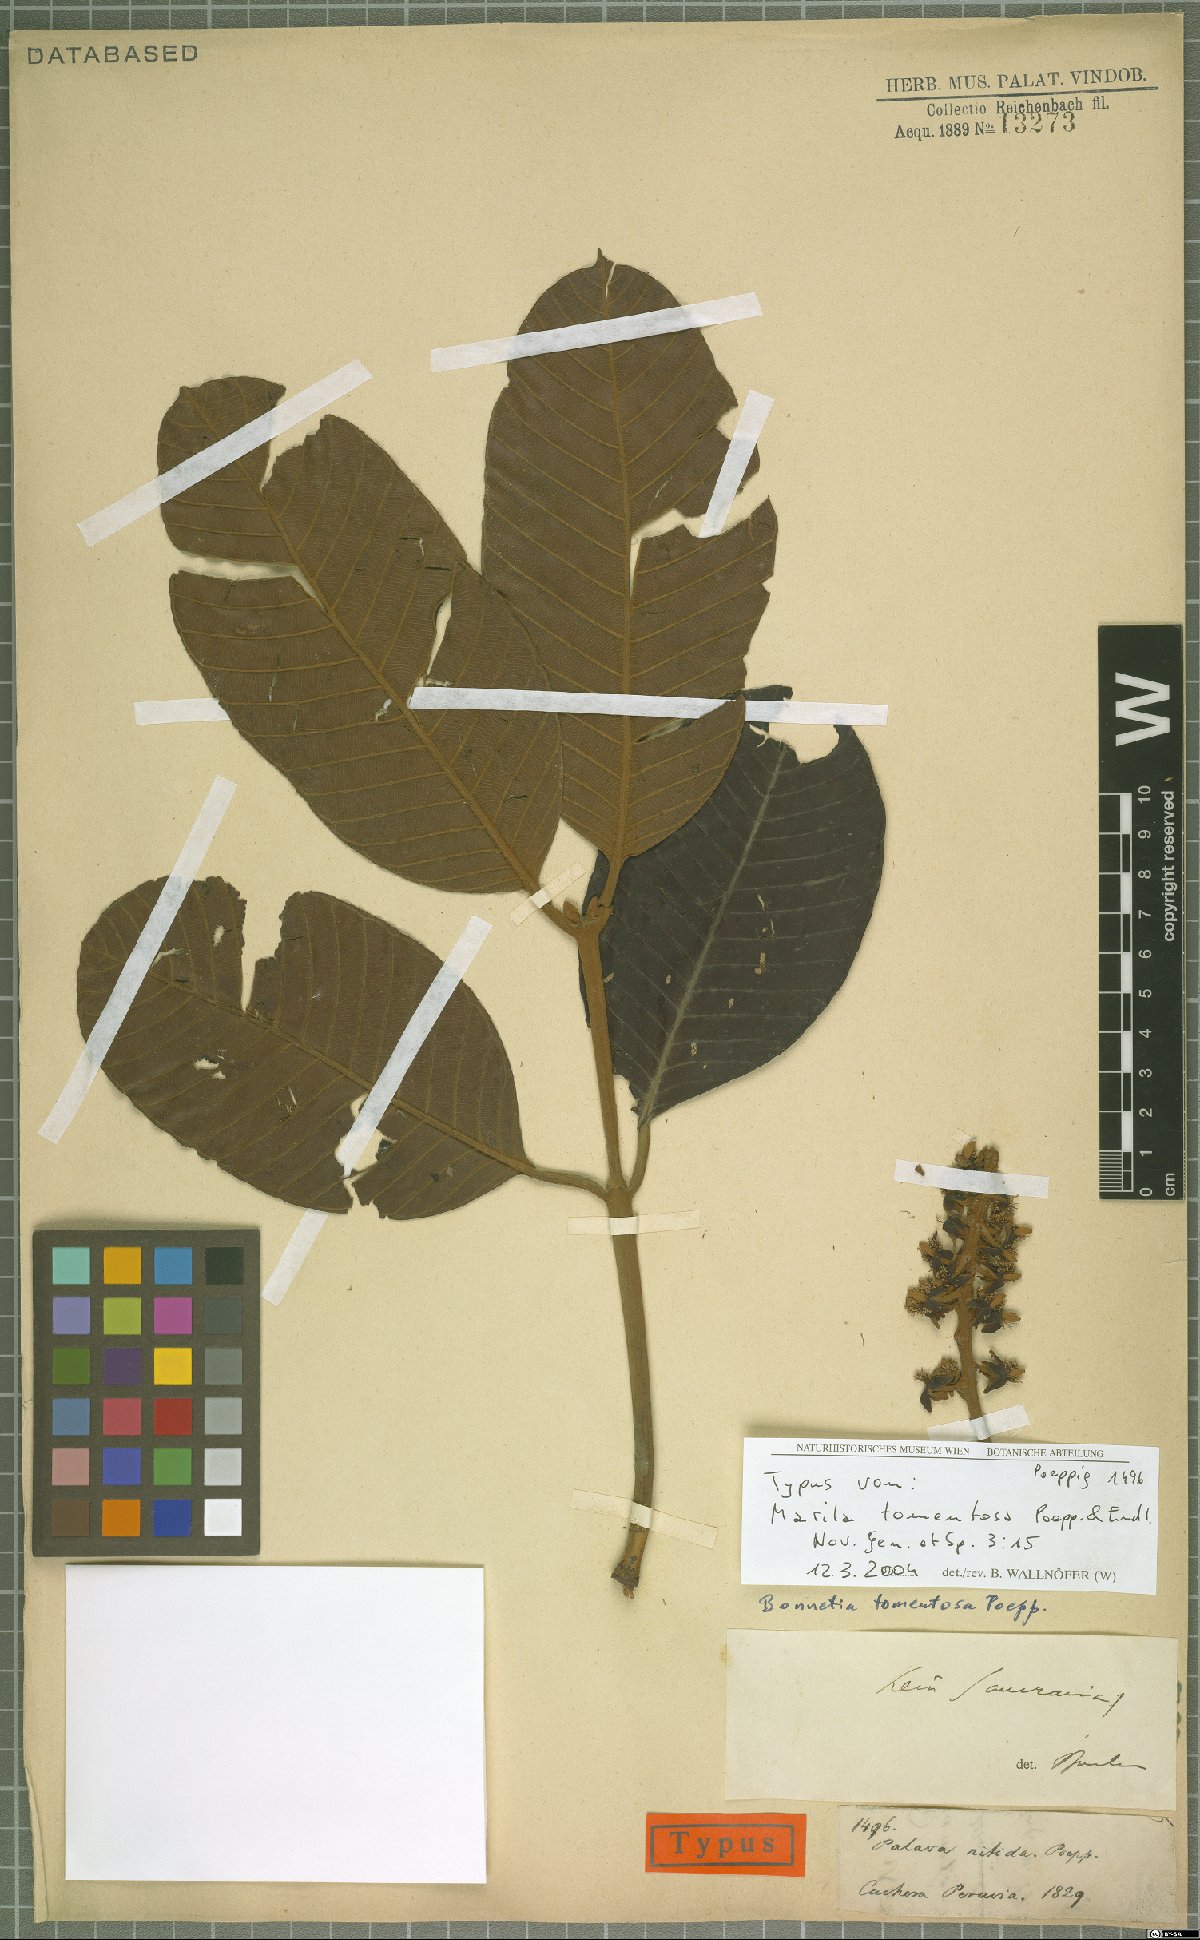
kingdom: Plantae
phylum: Tracheophyta
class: Magnoliopsida
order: Malpighiales
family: Calophyllaceae
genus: Marila
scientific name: Marila tomentosa
